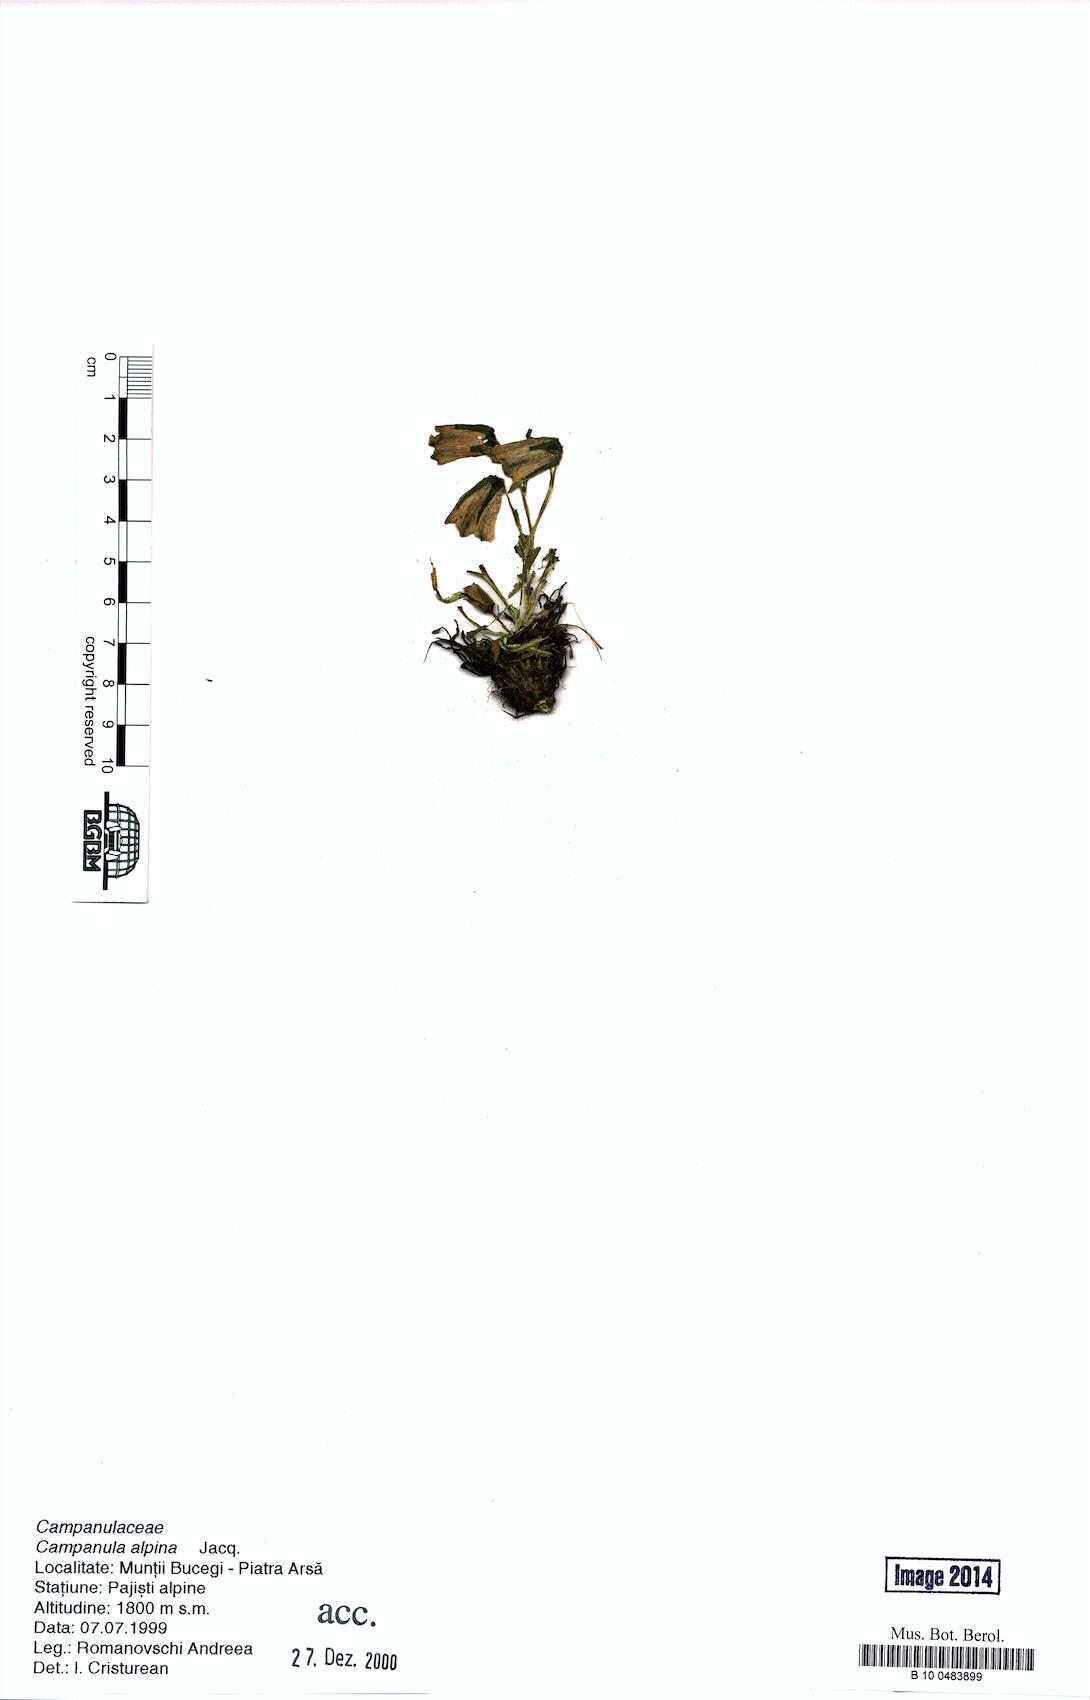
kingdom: Plantae
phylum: Tracheophyta
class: Magnoliopsida
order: Asterales
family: Campanulaceae
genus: Campanula
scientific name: Campanula alpina
